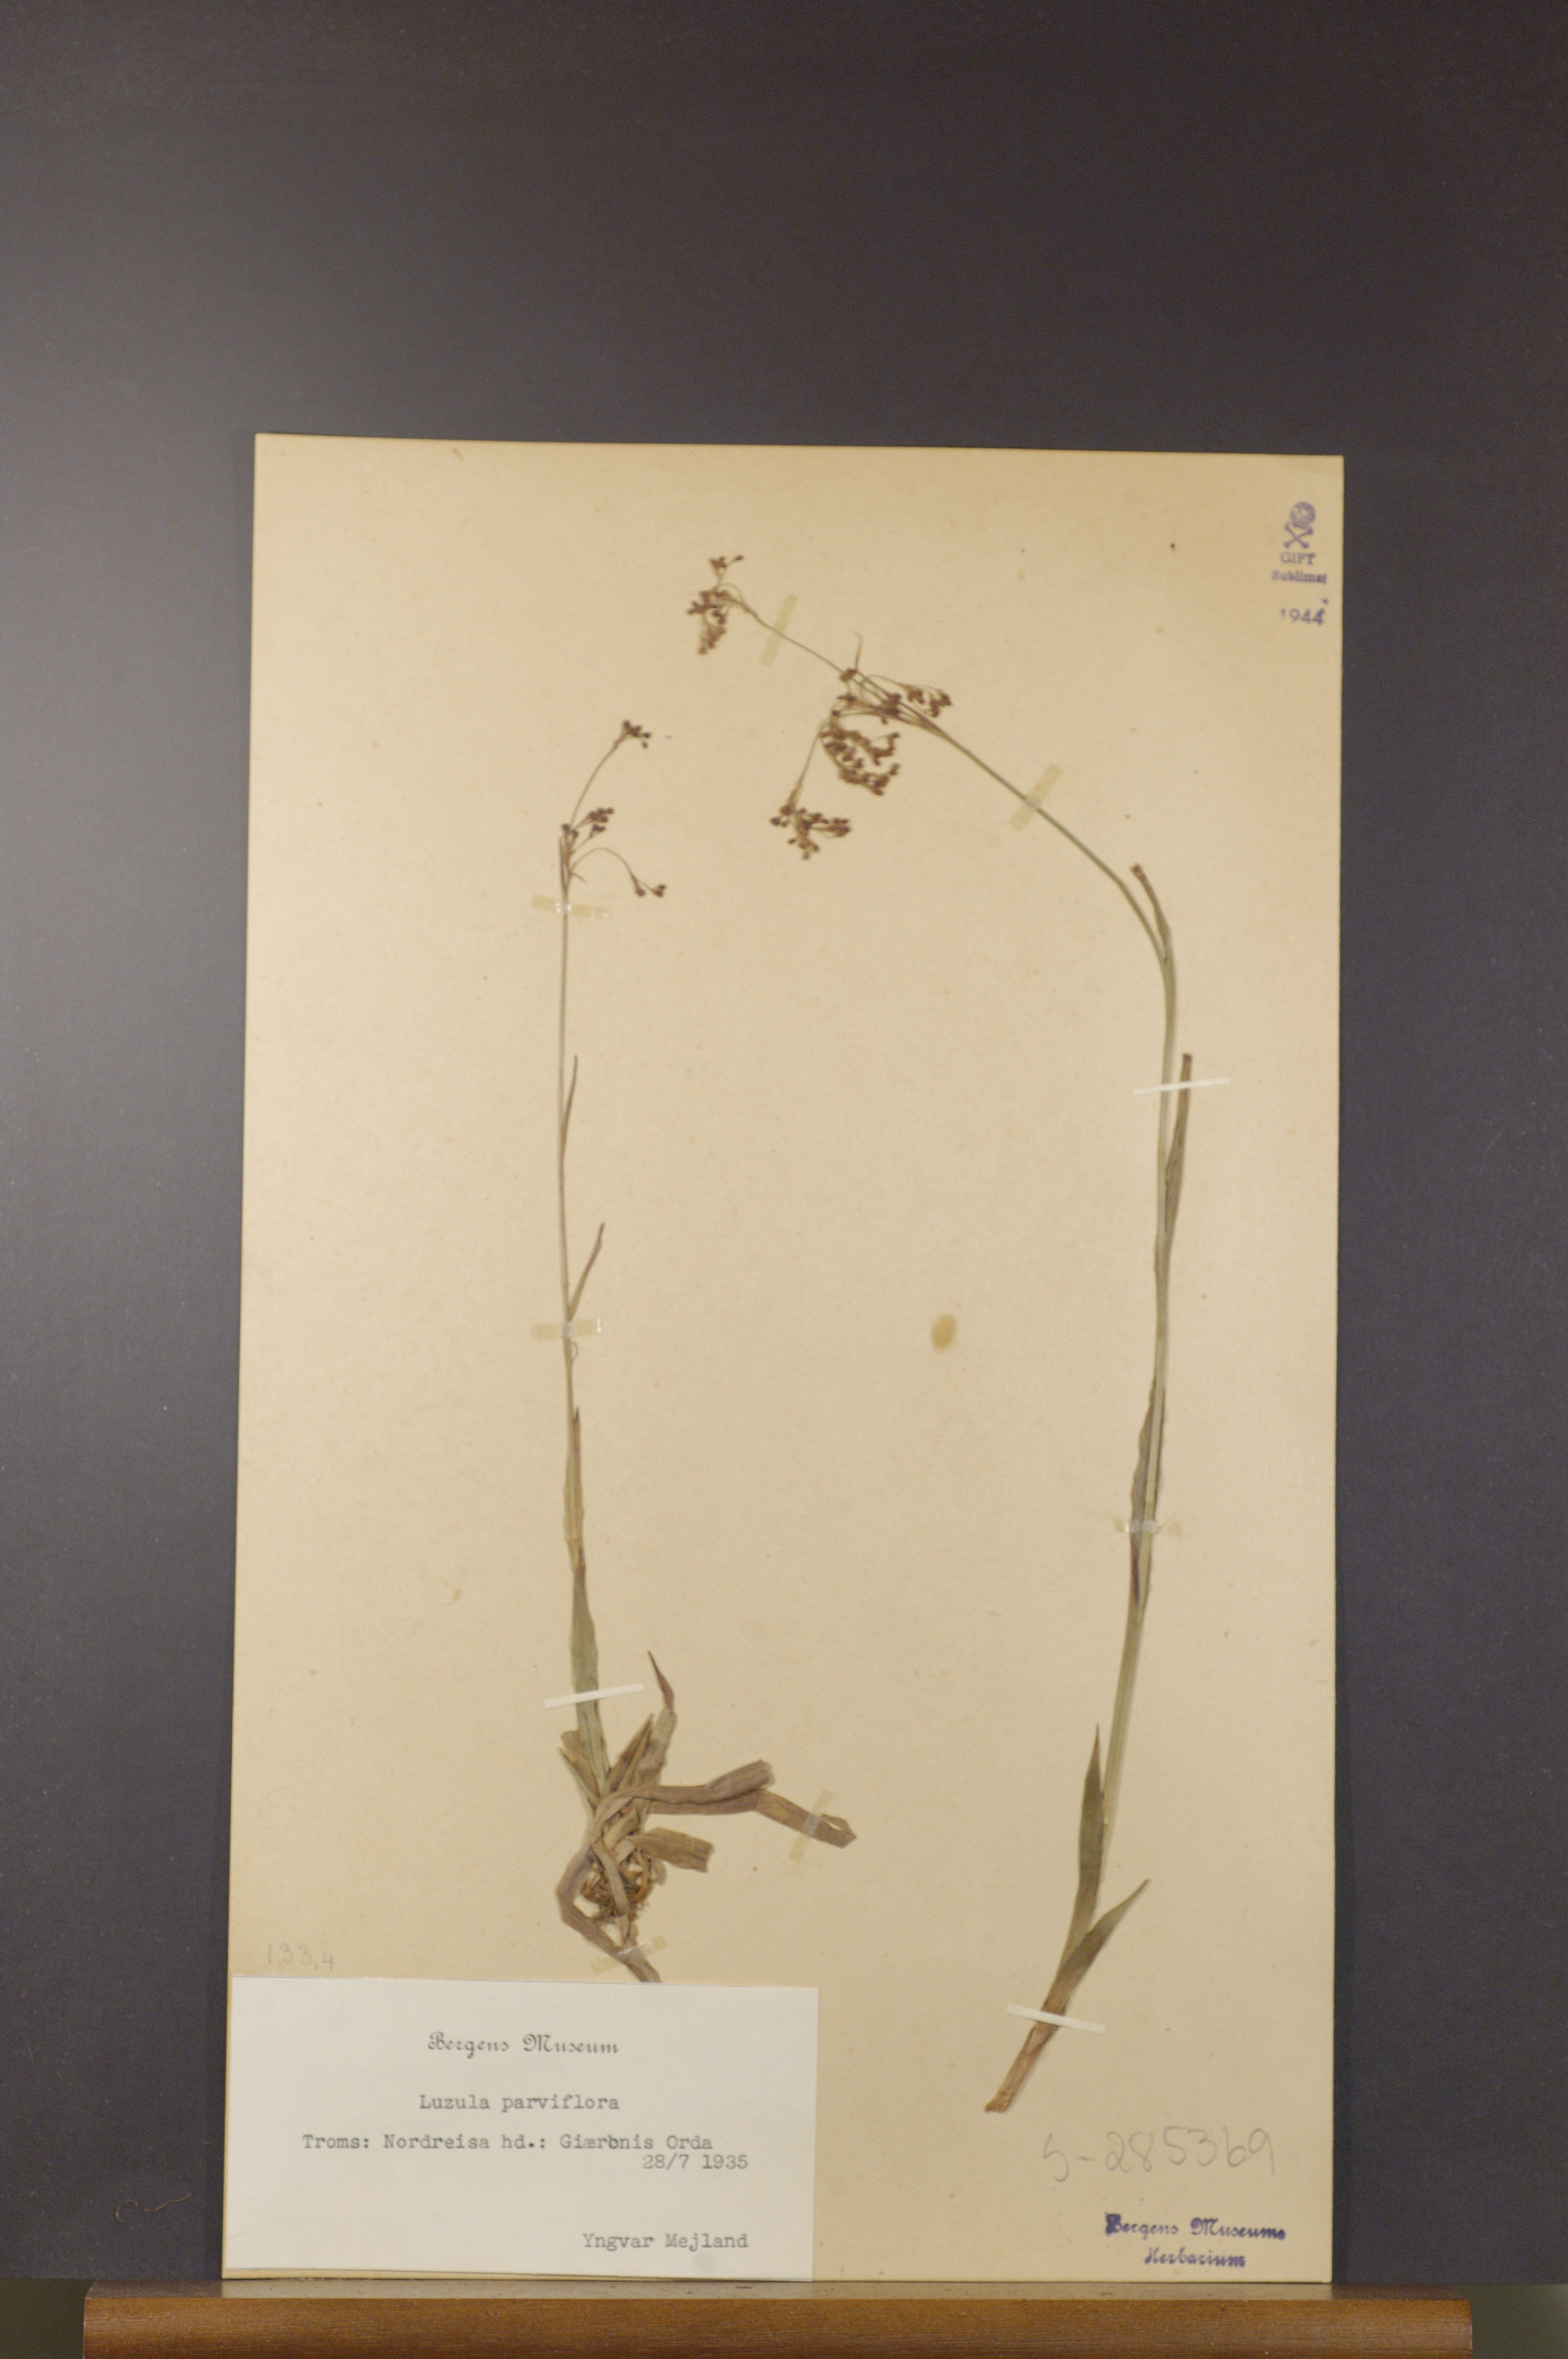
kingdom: Plantae
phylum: Tracheophyta
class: Liliopsida
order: Poales
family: Juncaceae
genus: Luzula
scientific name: Luzula parviflora
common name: Millet woodrush
